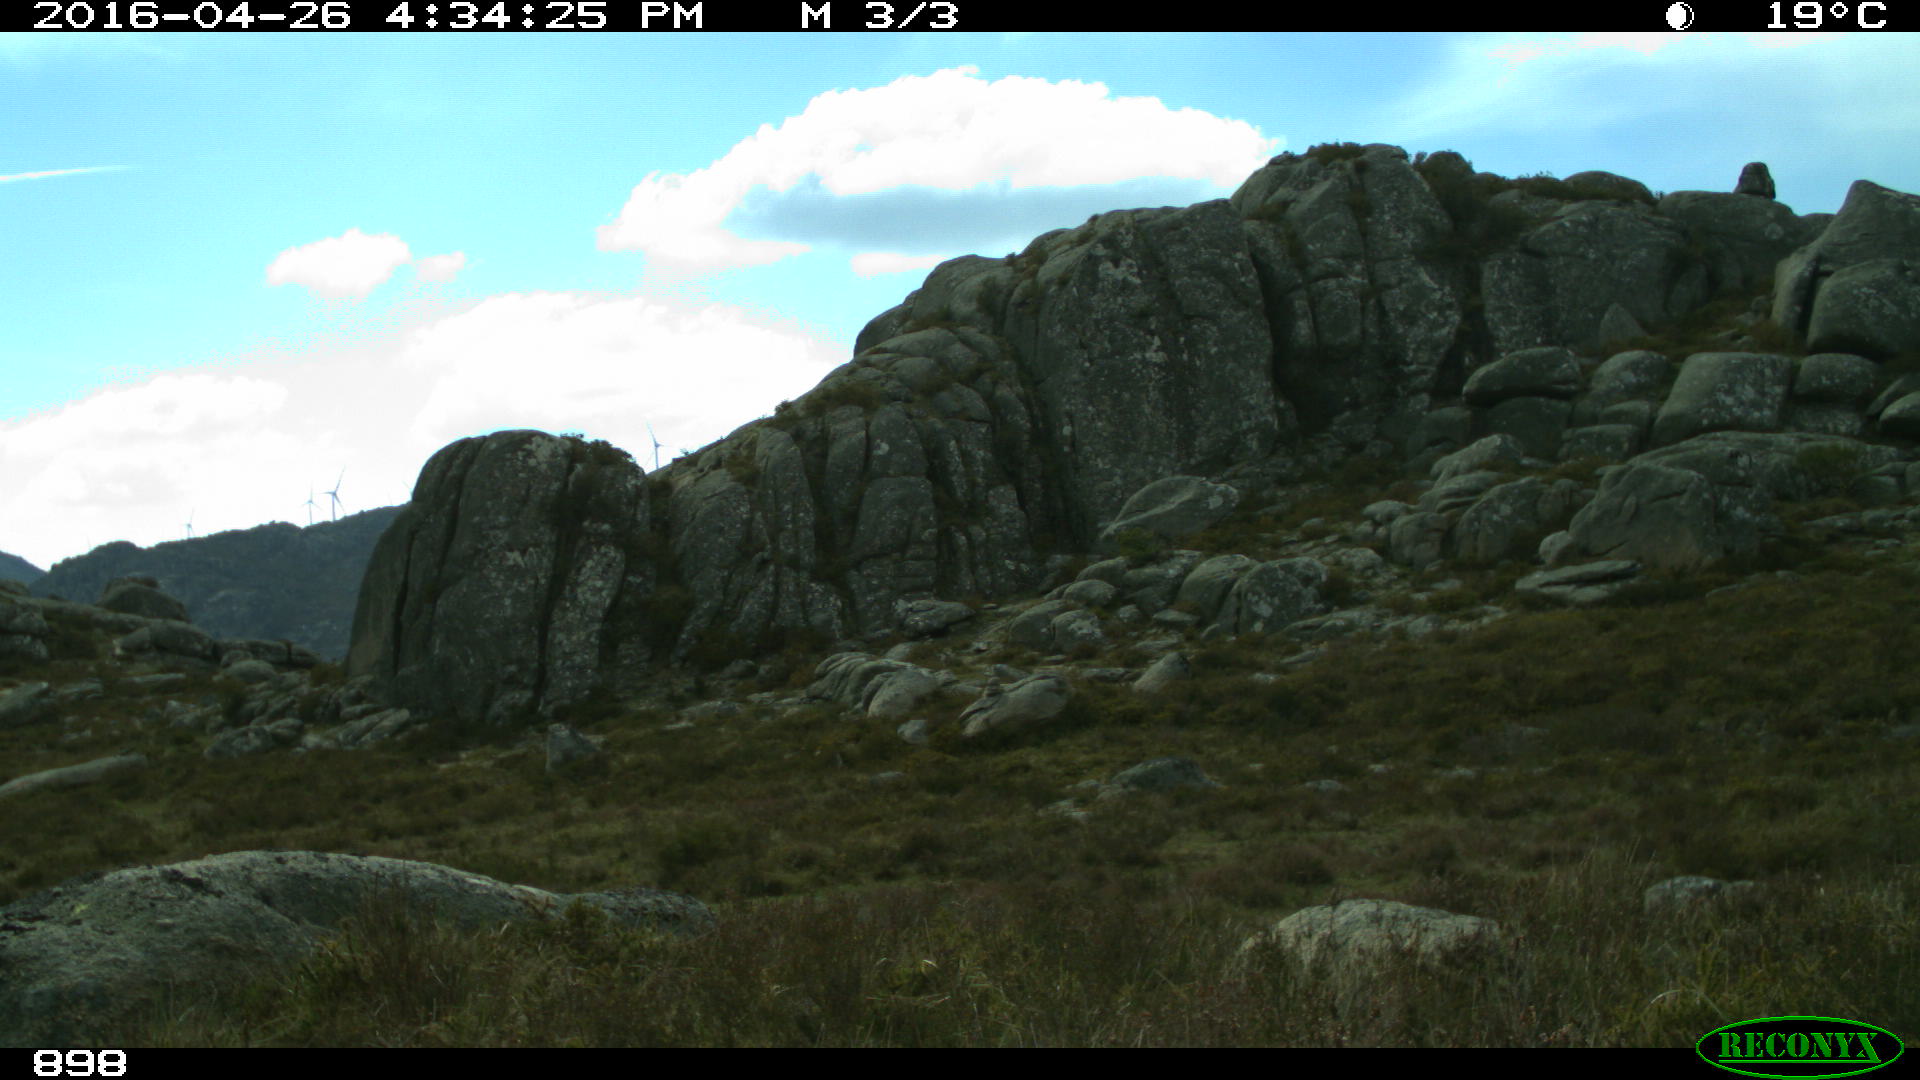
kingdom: Animalia
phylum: Chordata
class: Mammalia
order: Artiodactyla
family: Bovidae
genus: Bos
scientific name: Bos taurus
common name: Domesticated cattle
